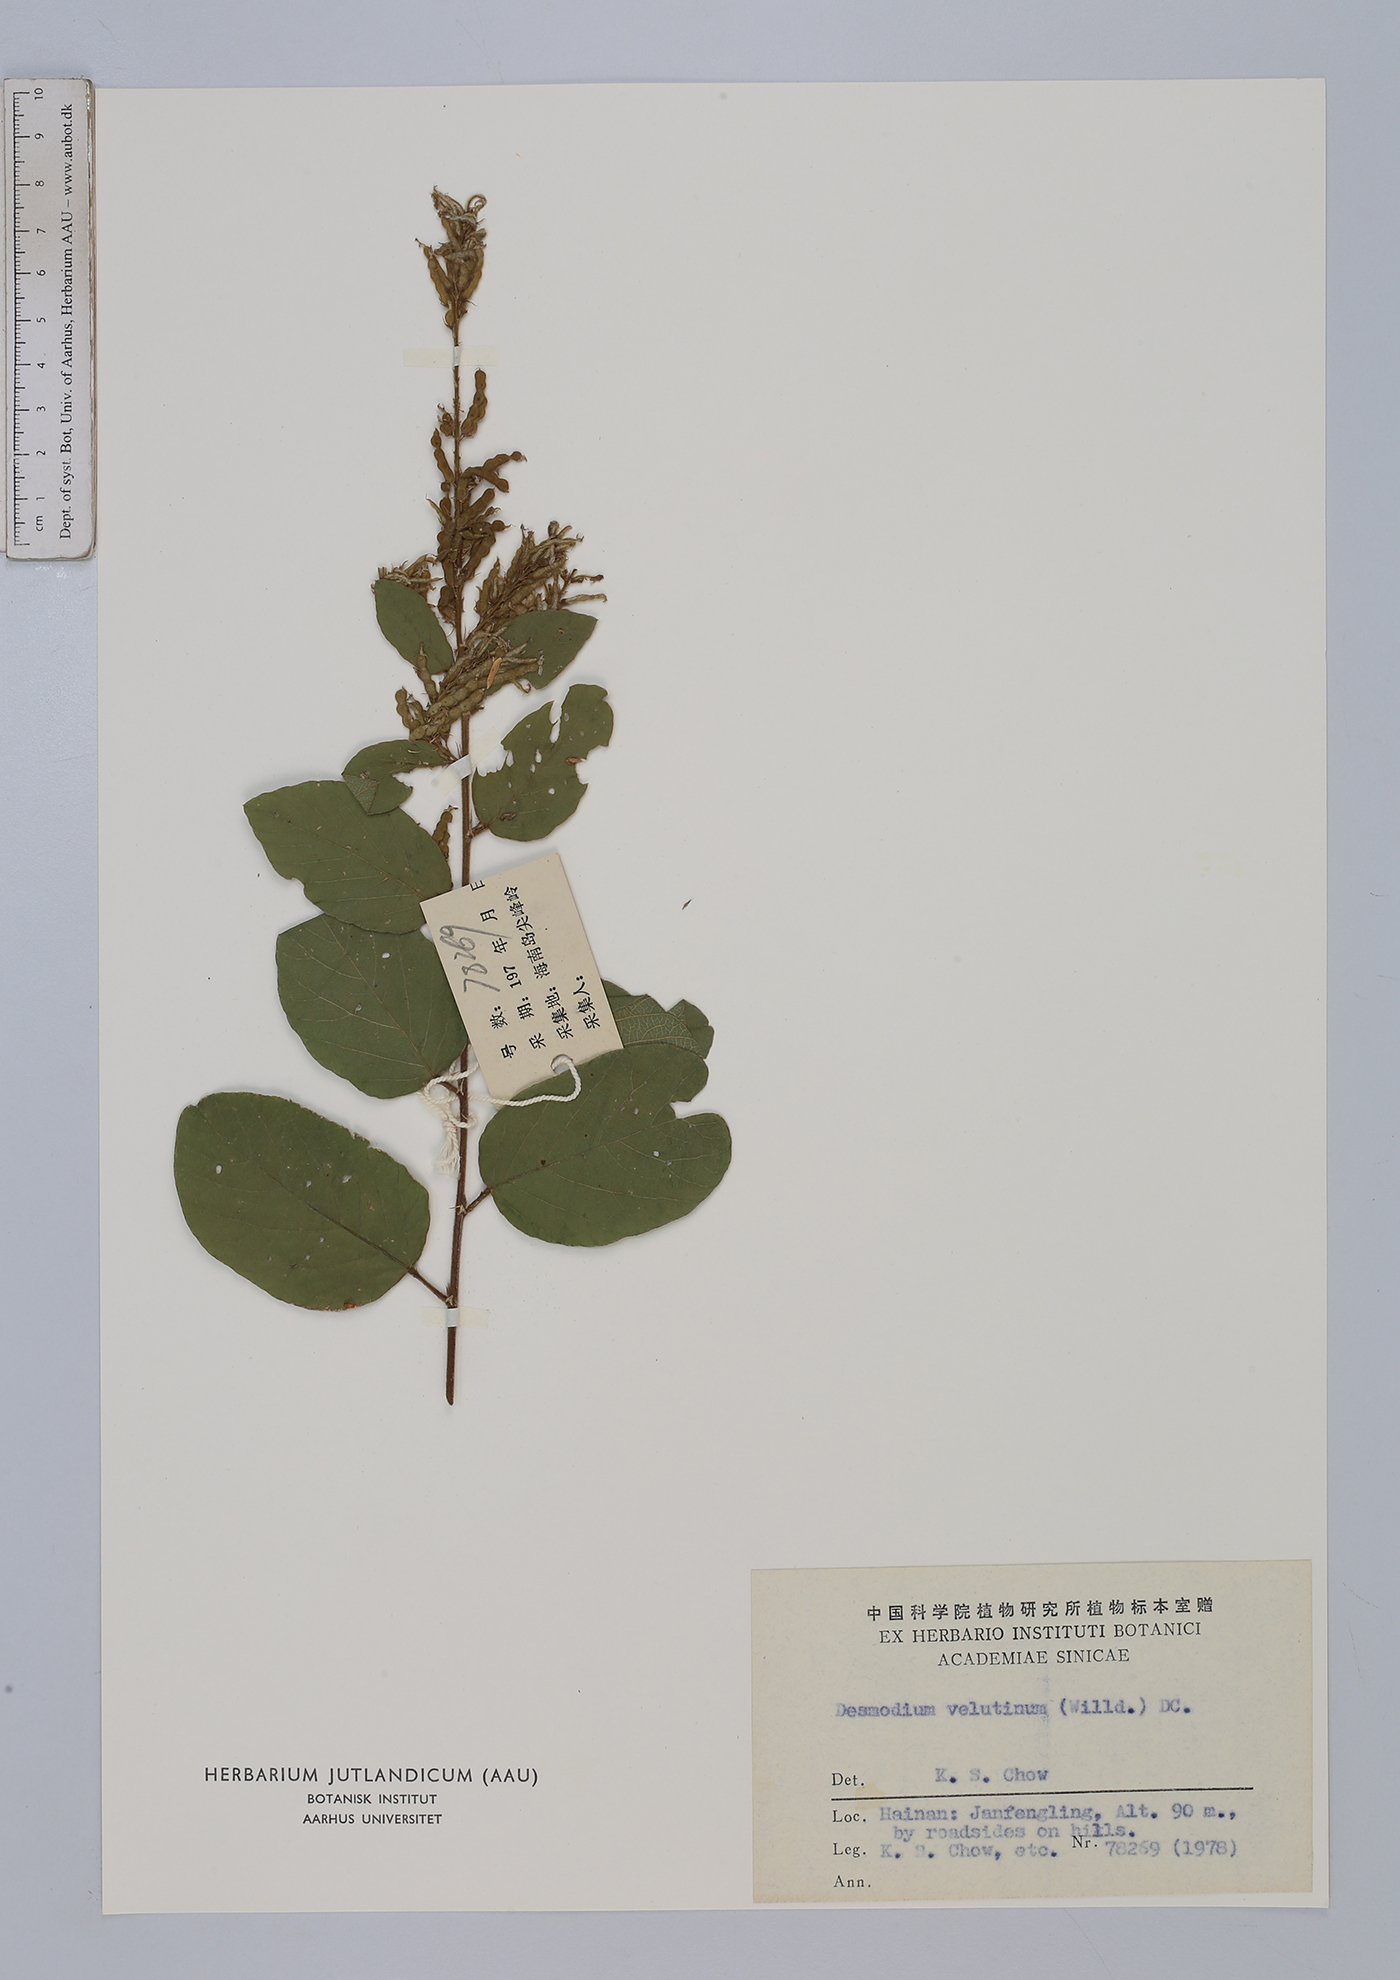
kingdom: Plantae
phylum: Tracheophyta
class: Magnoliopsida
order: Fabales
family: Fabaceae
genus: Polhillides
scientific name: Polhillides velutina
